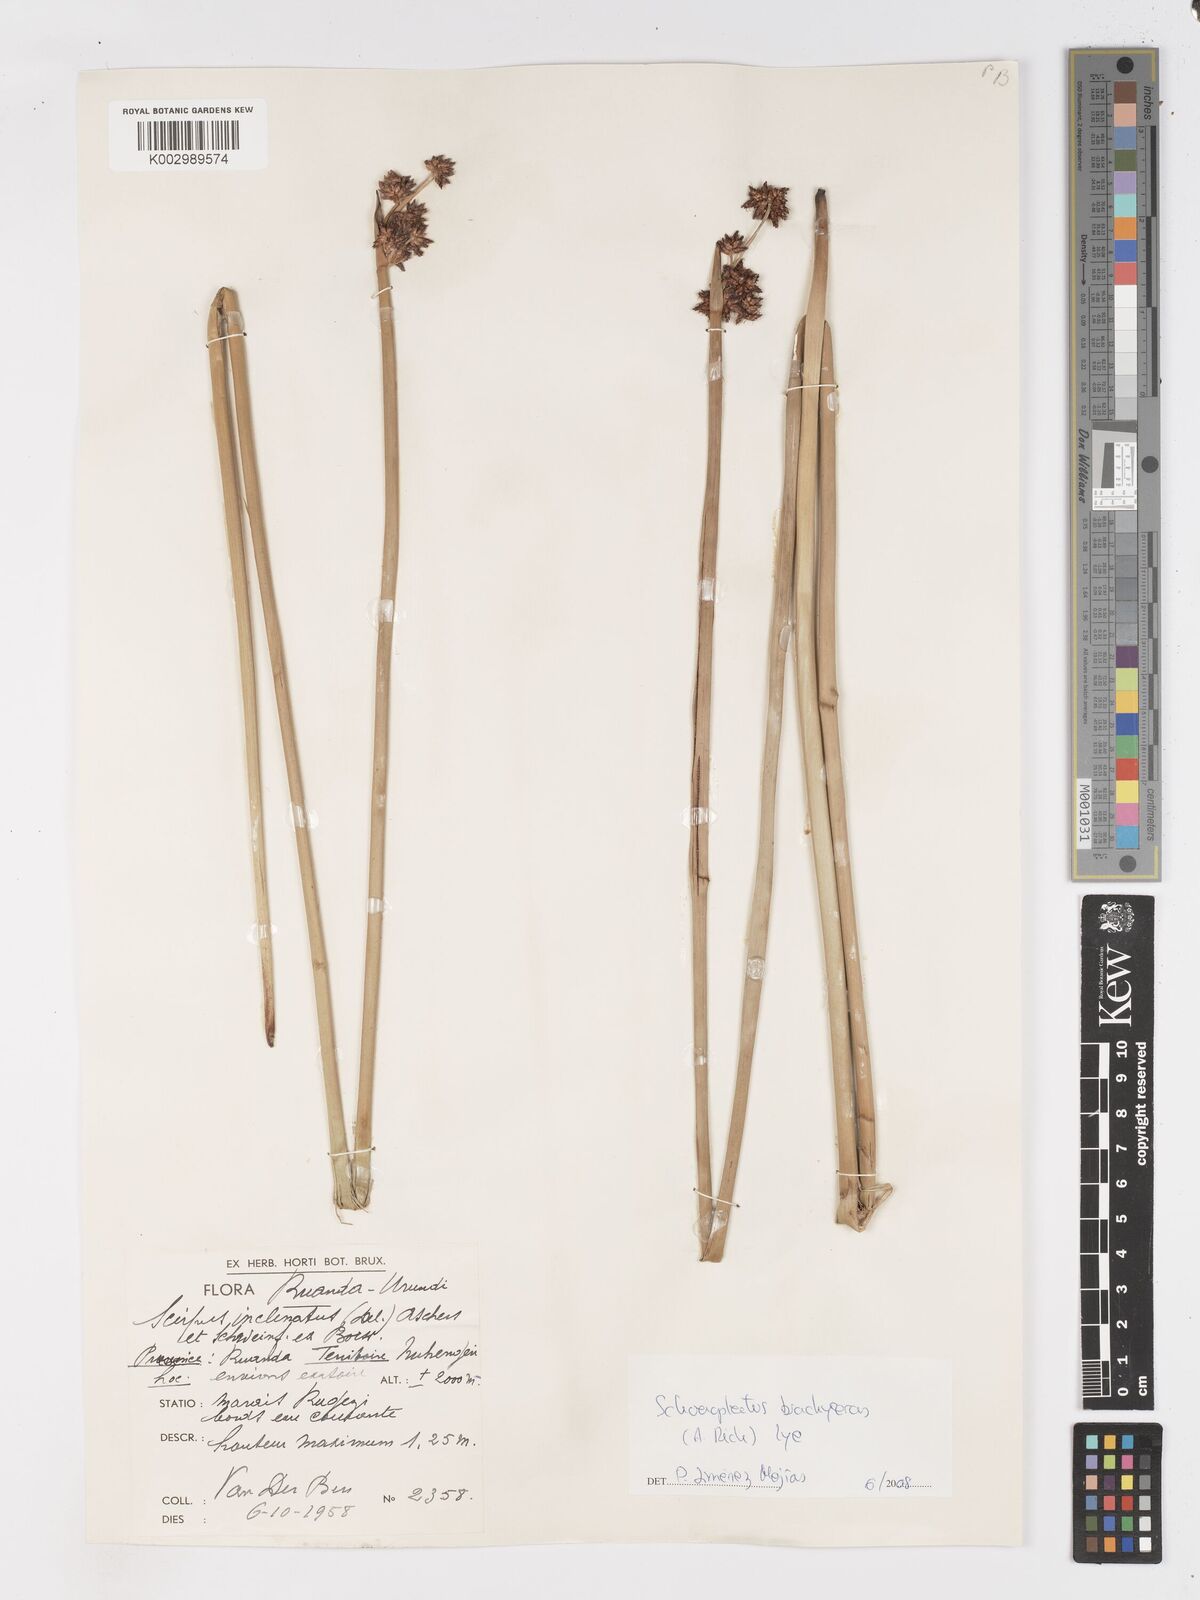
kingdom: Plantae
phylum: Tracheophyta
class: Liliopsida
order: Poales
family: Cyperaceae
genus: Schoenoplectiella
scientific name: Schoenoplectiella corymbosa
